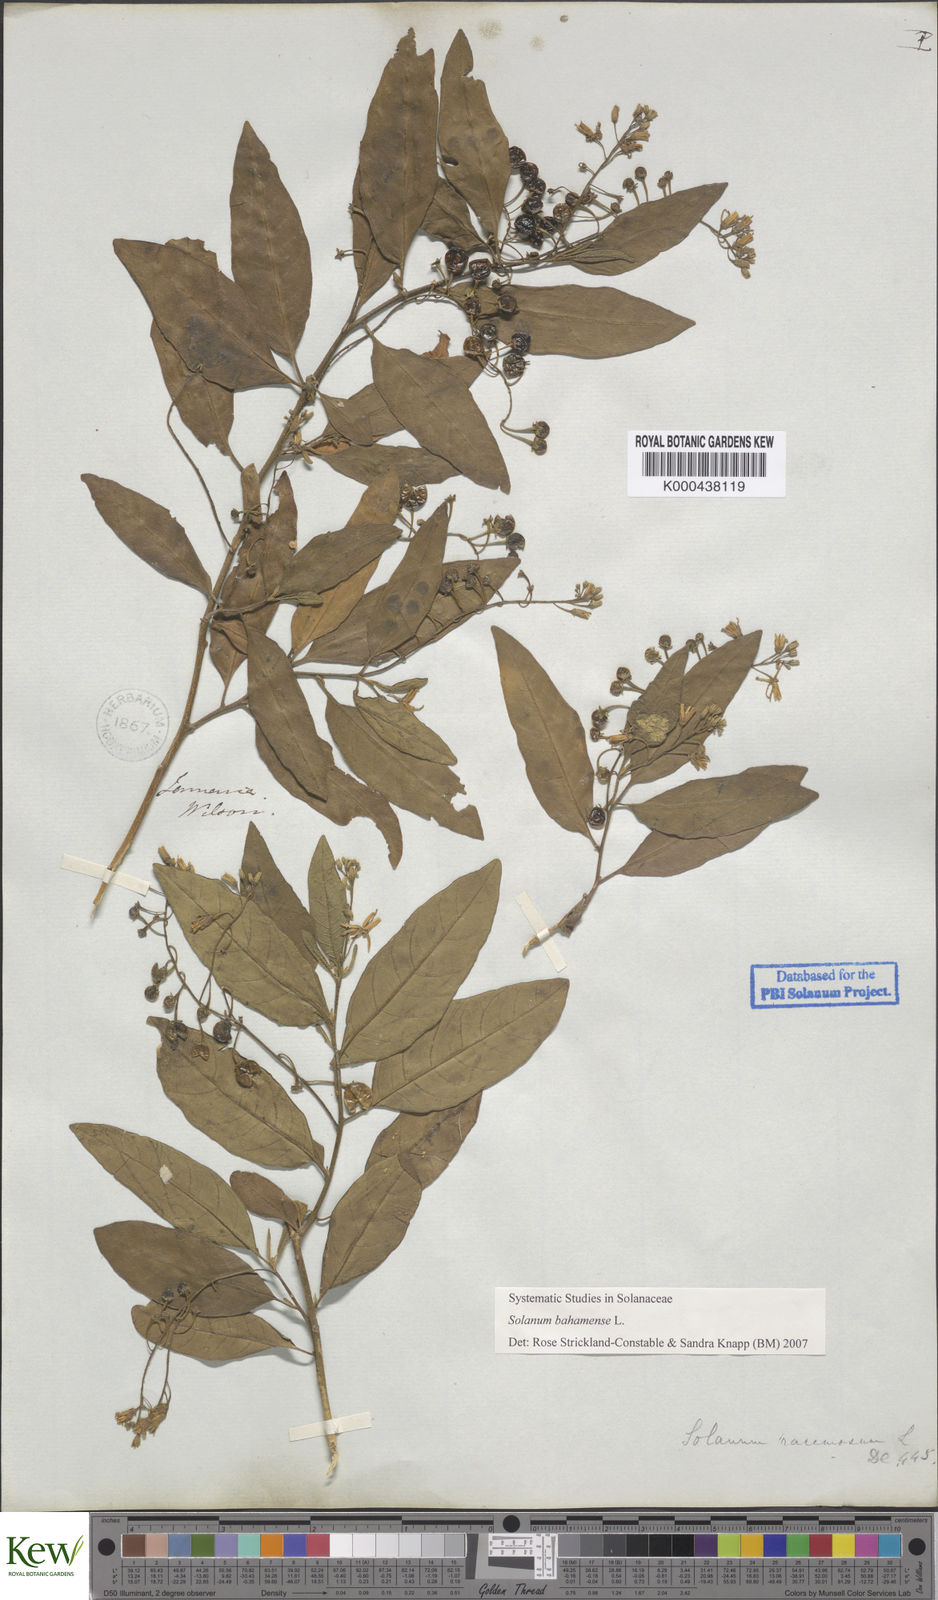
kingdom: Plantae
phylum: Tracheophyta
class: Magnoliopsida
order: Solanales
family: Solanaceae
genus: Solanum
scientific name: Solanum bahamense
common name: Canker-berry
